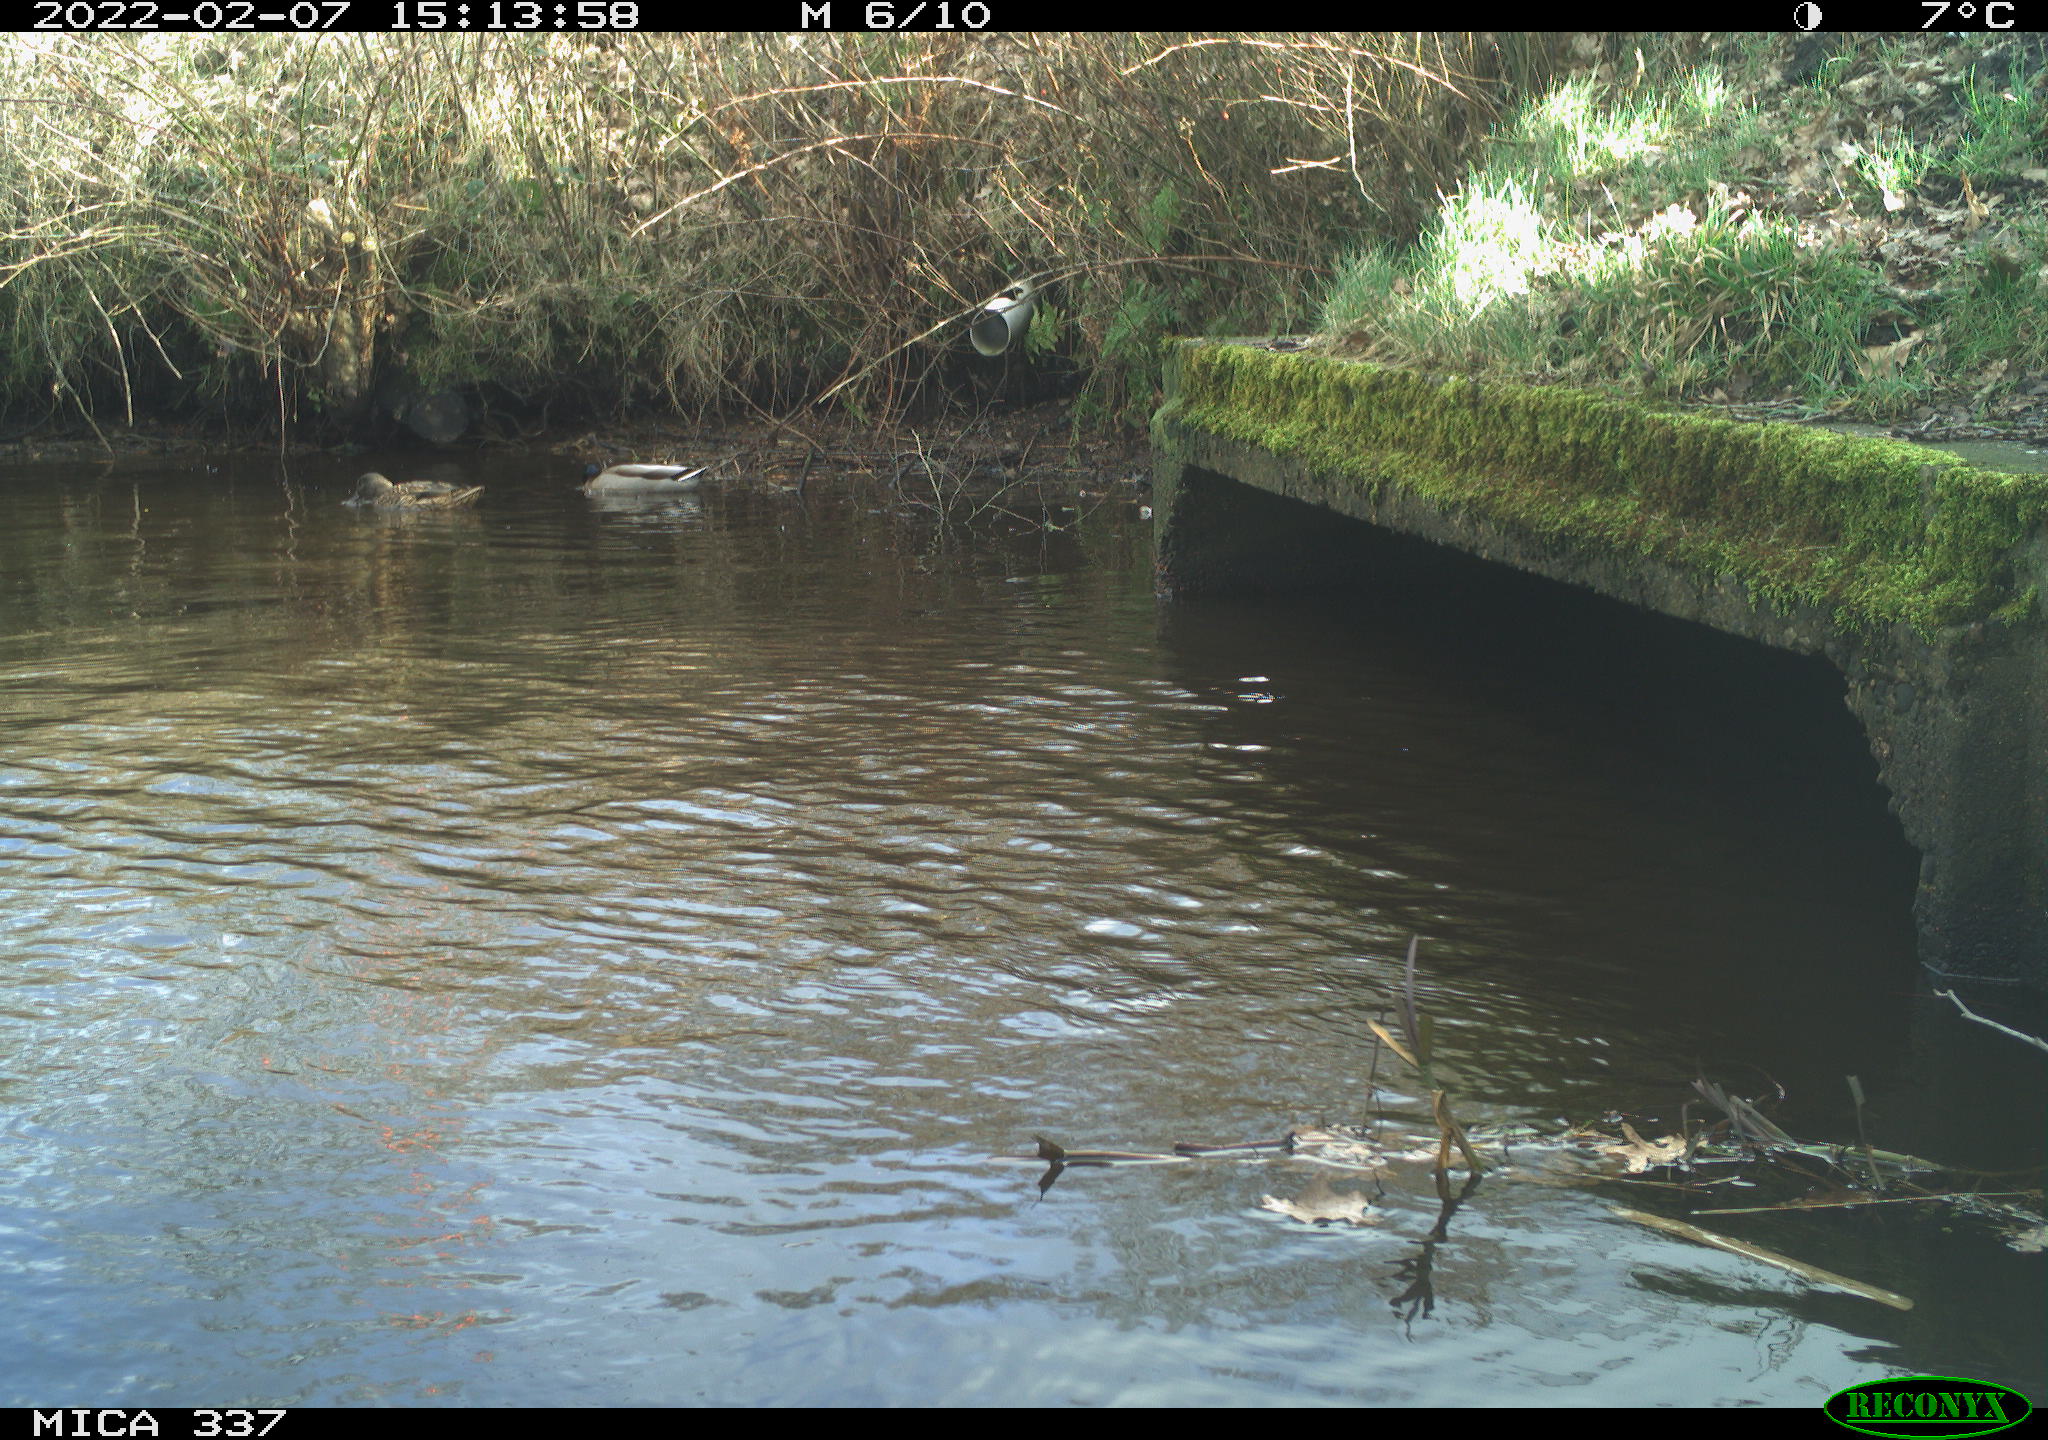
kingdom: Animalia
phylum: Chordata
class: Aves
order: Anseriformes
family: Anatidae
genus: Anas
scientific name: Anas platyrhynchos
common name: Mallard
